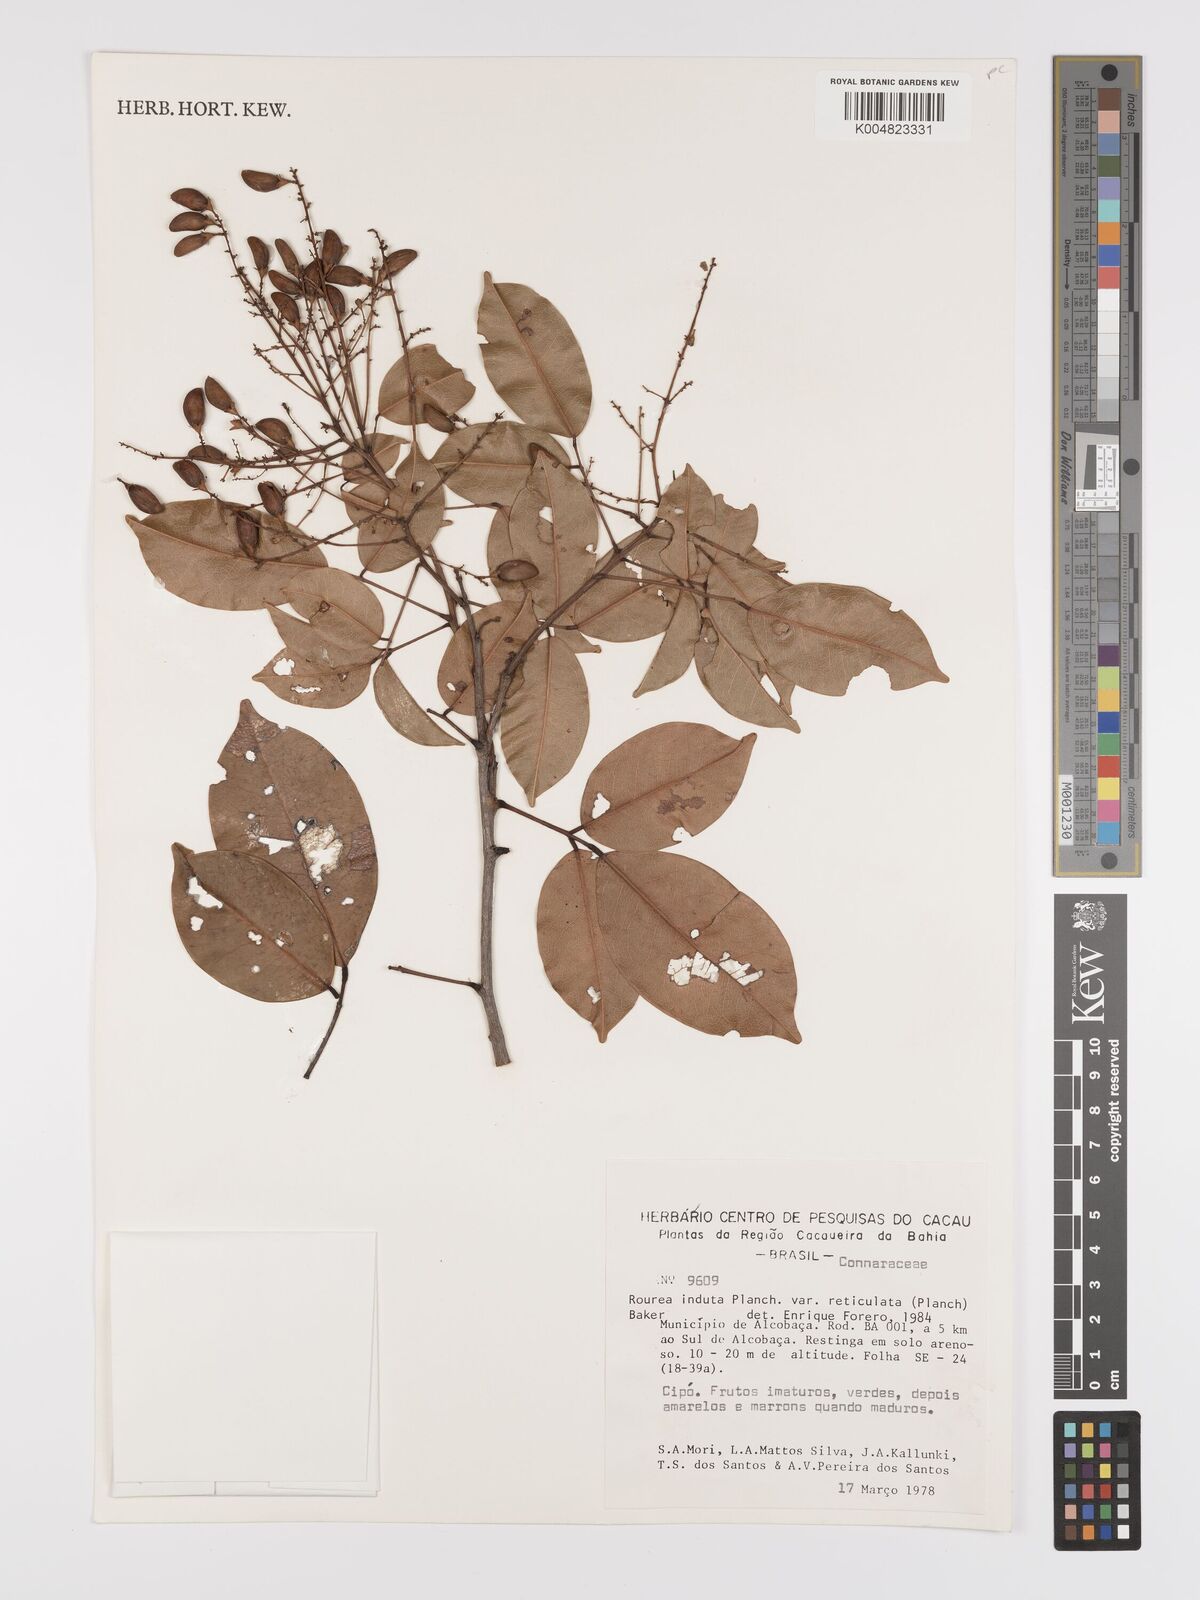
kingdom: Plantae
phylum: Tracheophyta
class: Magnoliopsida
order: Oxalidales
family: Connaraceae
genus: Rourea
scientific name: Rourea induta
